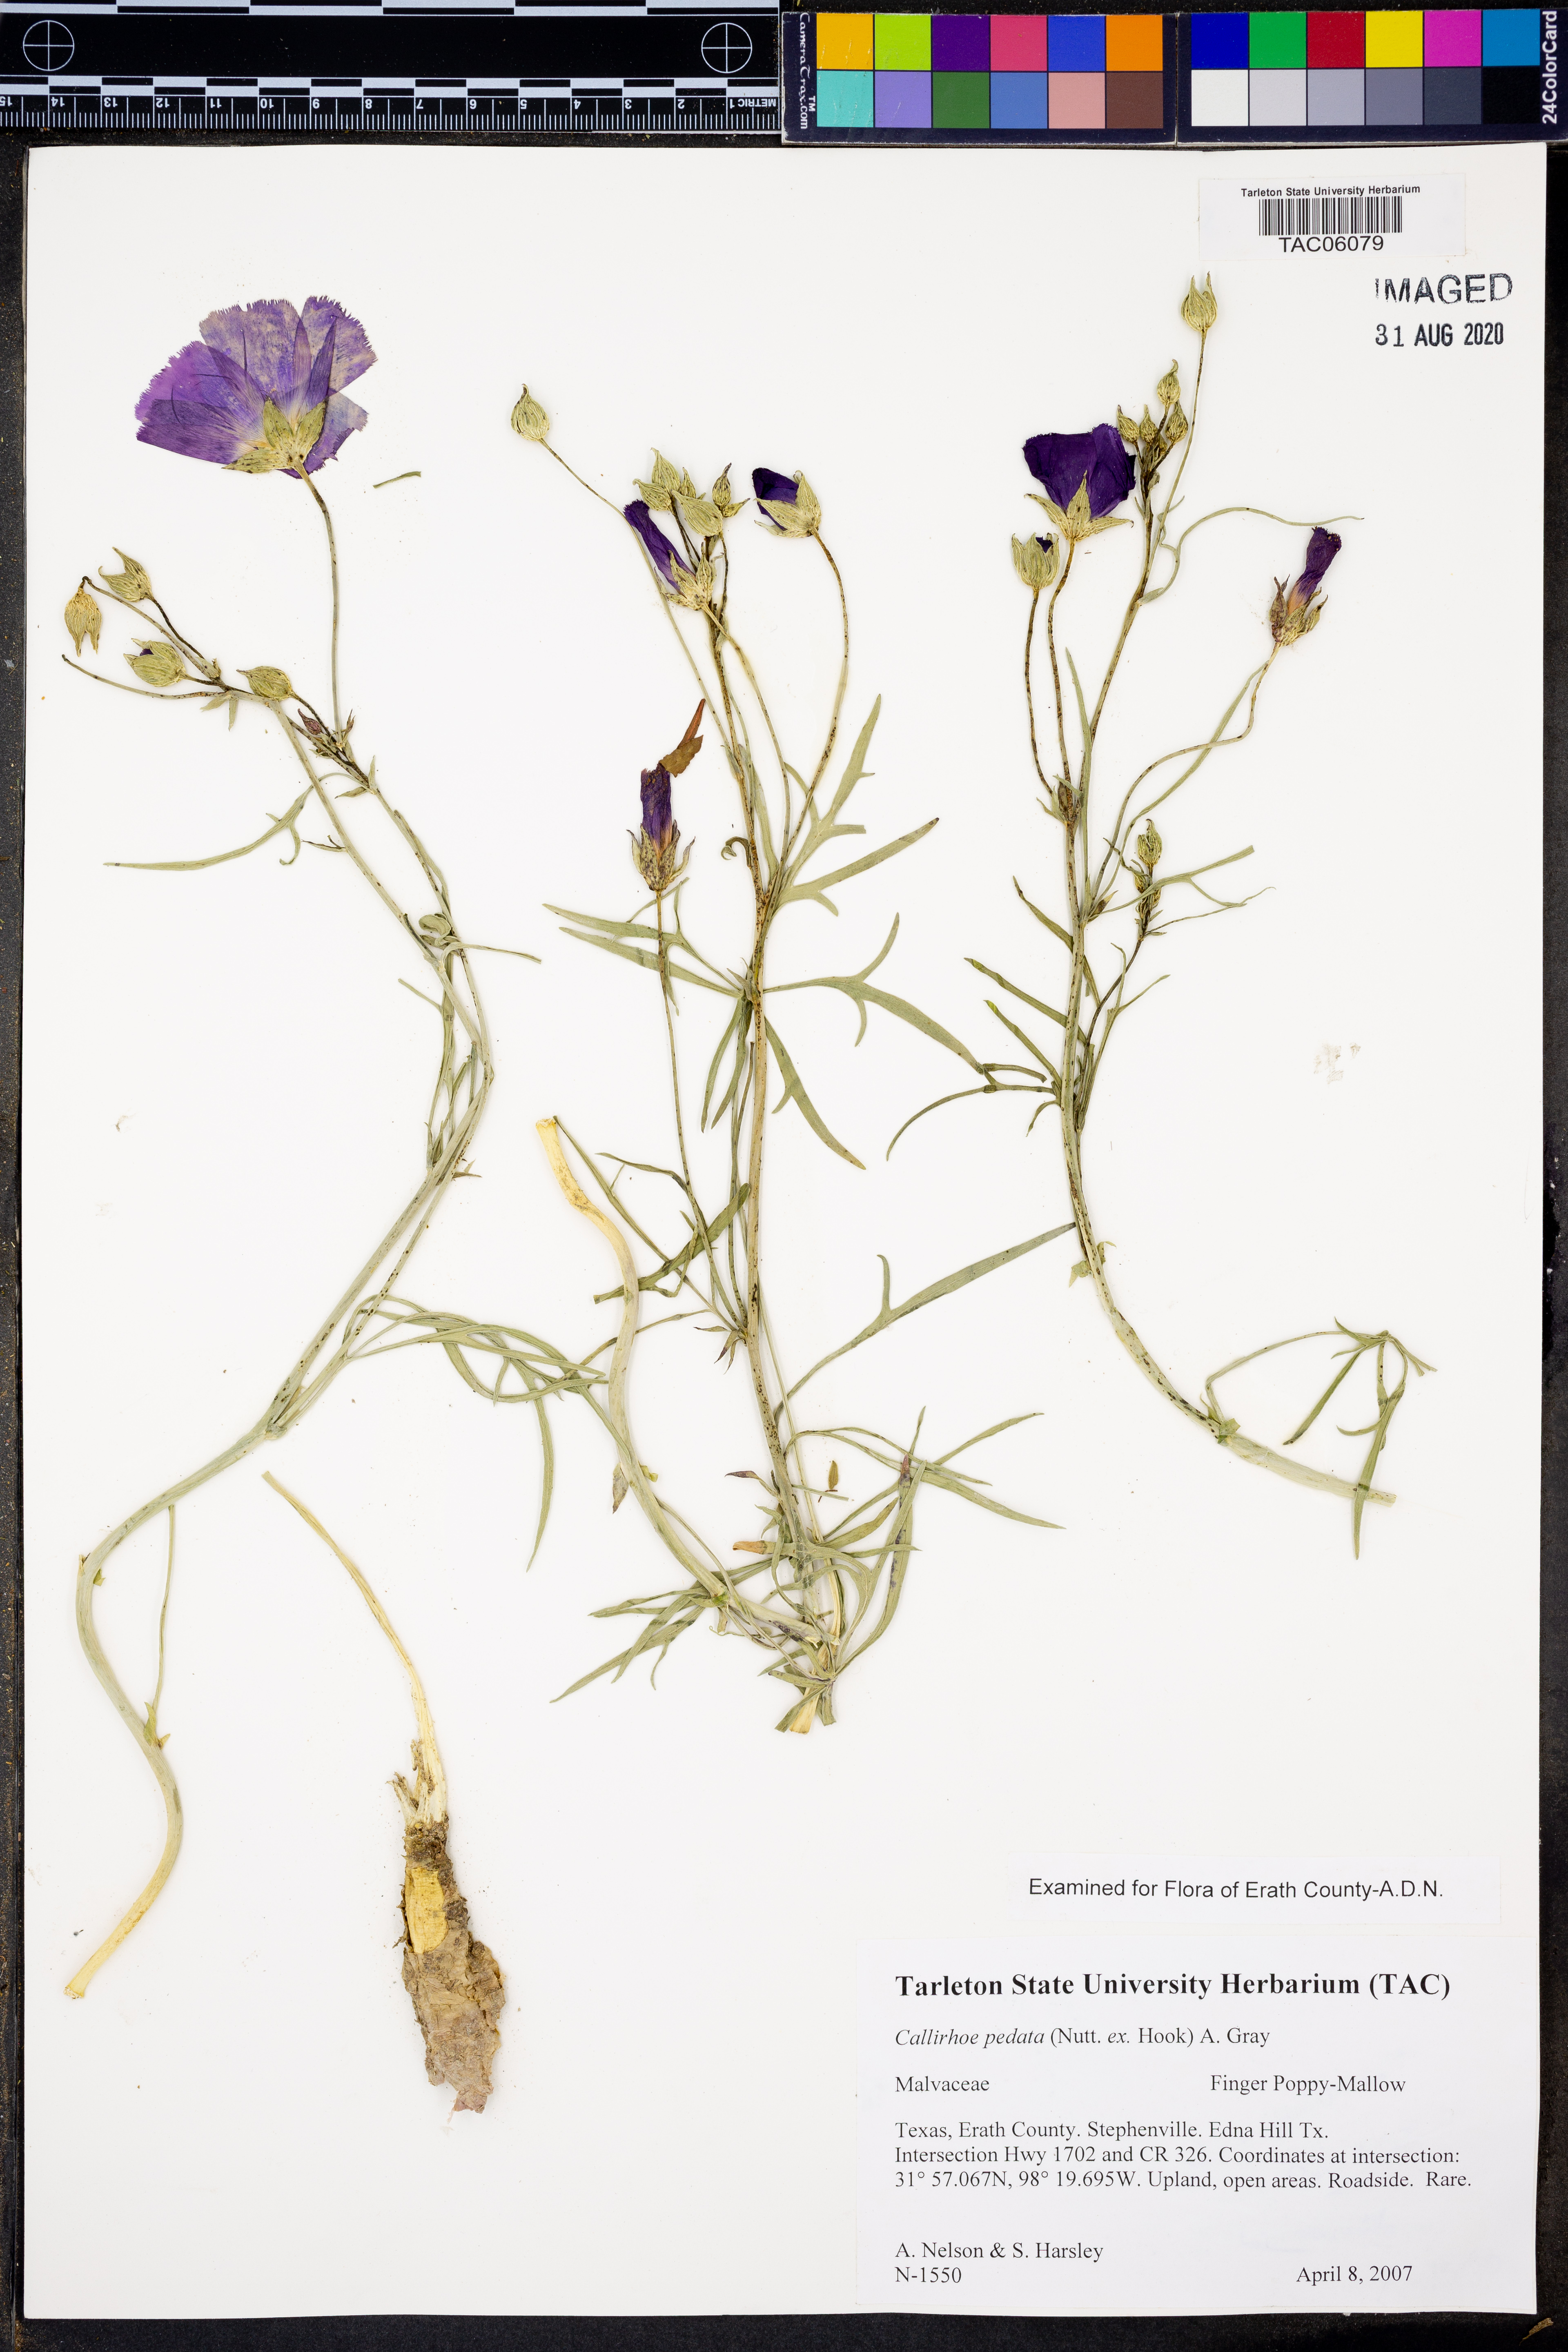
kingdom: Plantae
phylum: Tracheophyta
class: Magnoliopsida
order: Malvales
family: Malvaceae
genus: Callirhoe
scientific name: Callirhoe pedata
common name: Finger poppy-mallow
